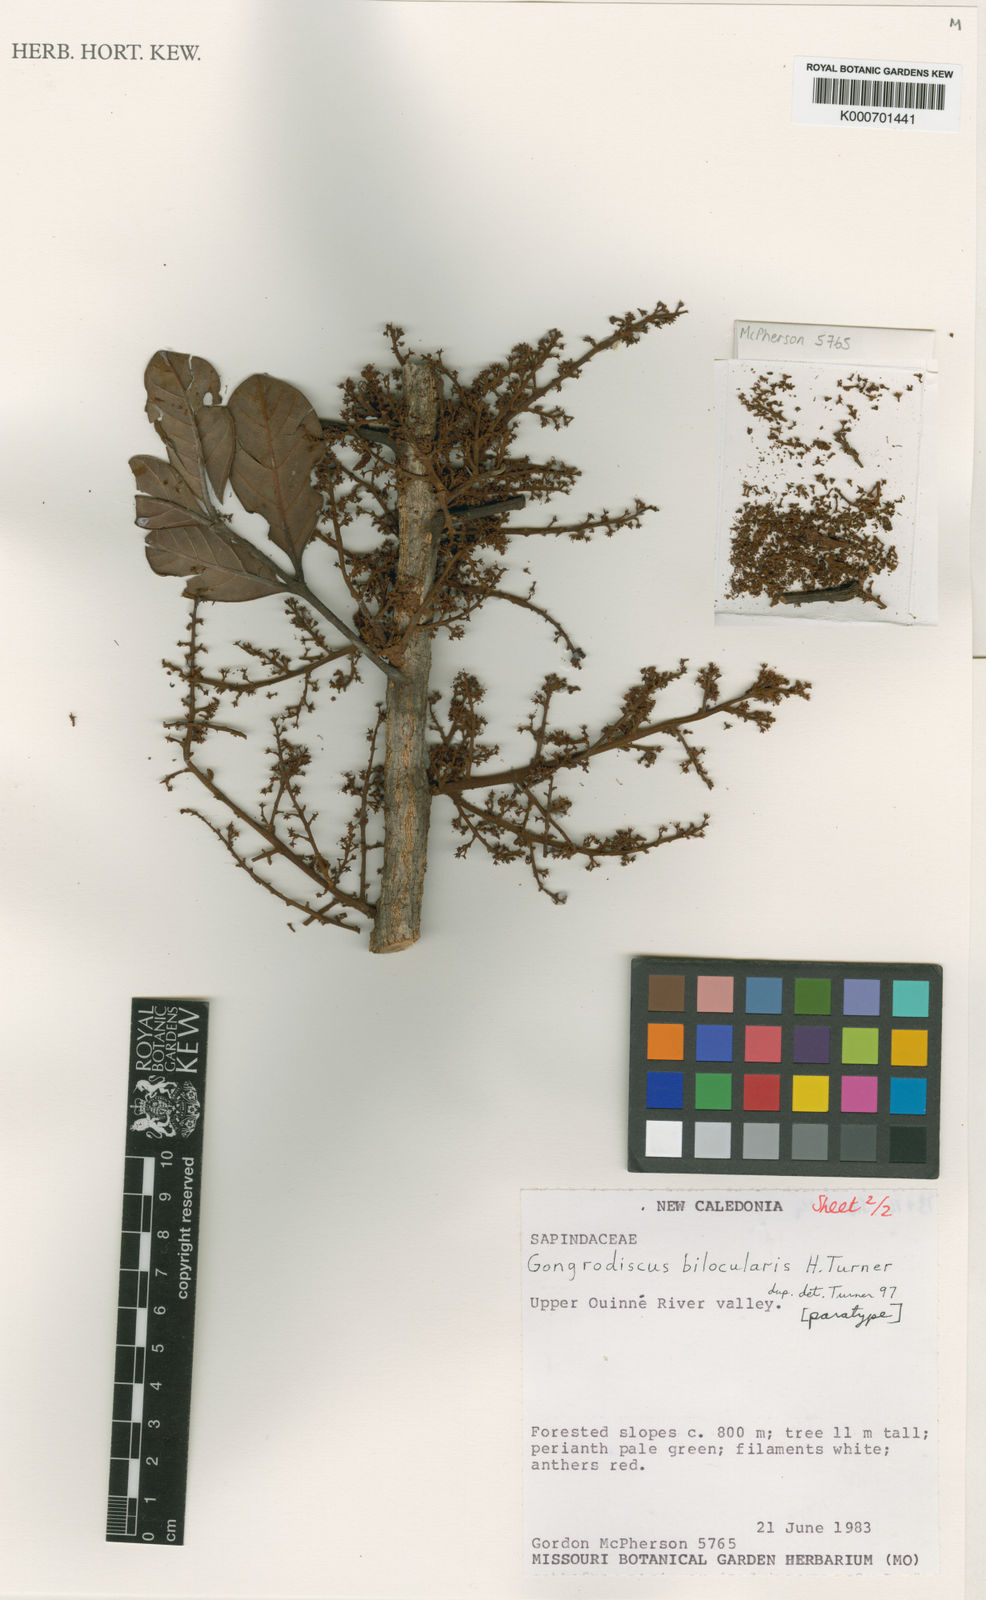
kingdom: Plantae
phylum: Tracheophyta
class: Magnoliopsida
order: Sapindales
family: Sapindaceae
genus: Gongrodiscus
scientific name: Gongrodiscus bilocularis
